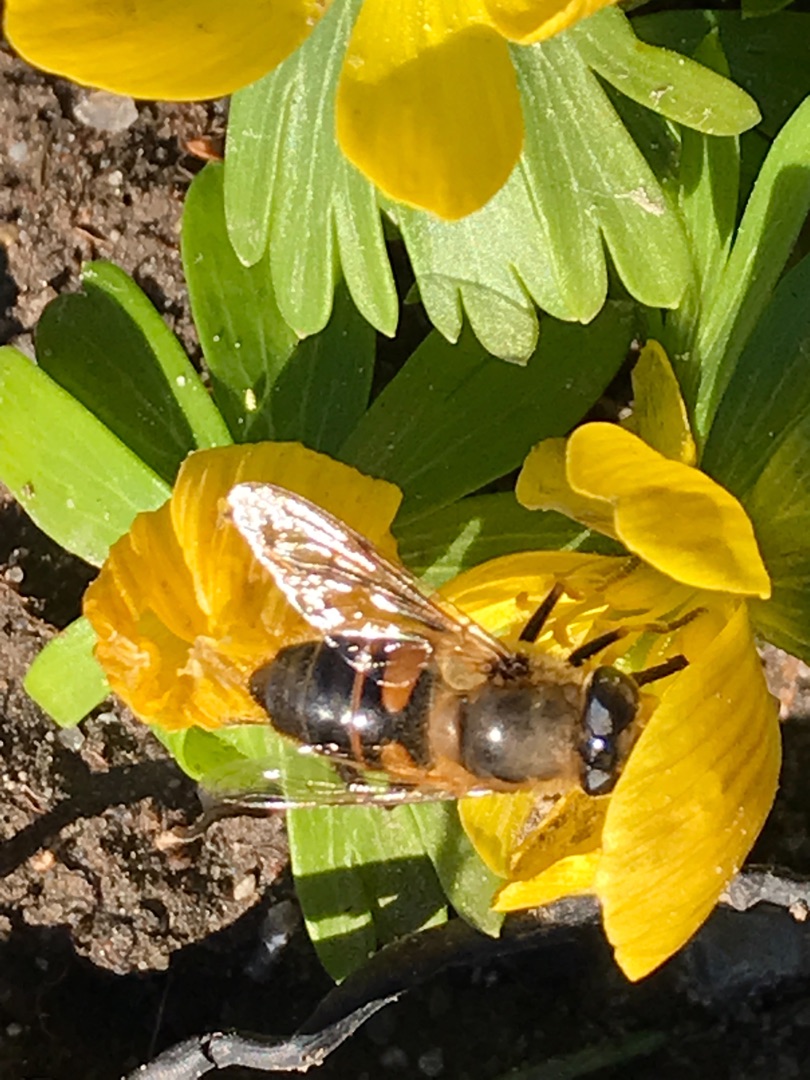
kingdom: Animalia
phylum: Arthropoda
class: Insecta
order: Diptera
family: Syrphidae
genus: Eristalis
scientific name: Eristalis tenax
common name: Droneflue
